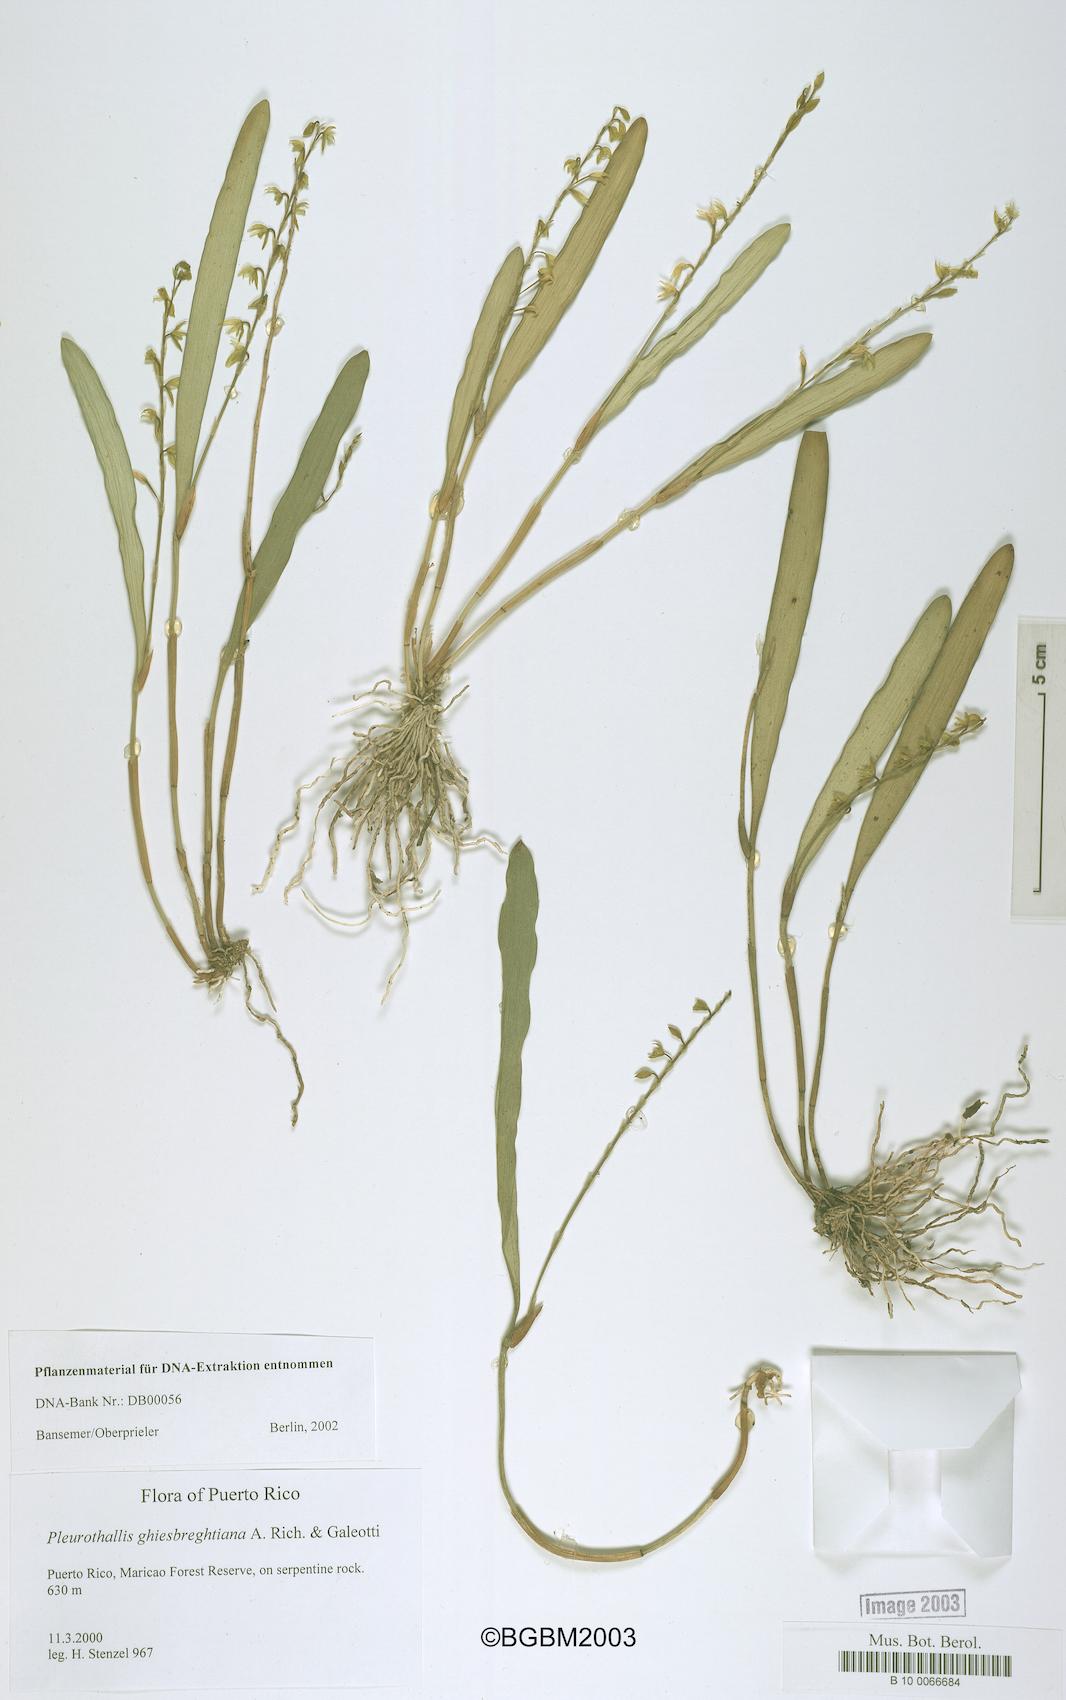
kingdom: Plantae
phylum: Tracheophyta
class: Liliopsida
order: Asparagales
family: Orchidaceae
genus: Pleurothallis
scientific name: Pleurothallis quadrifida
